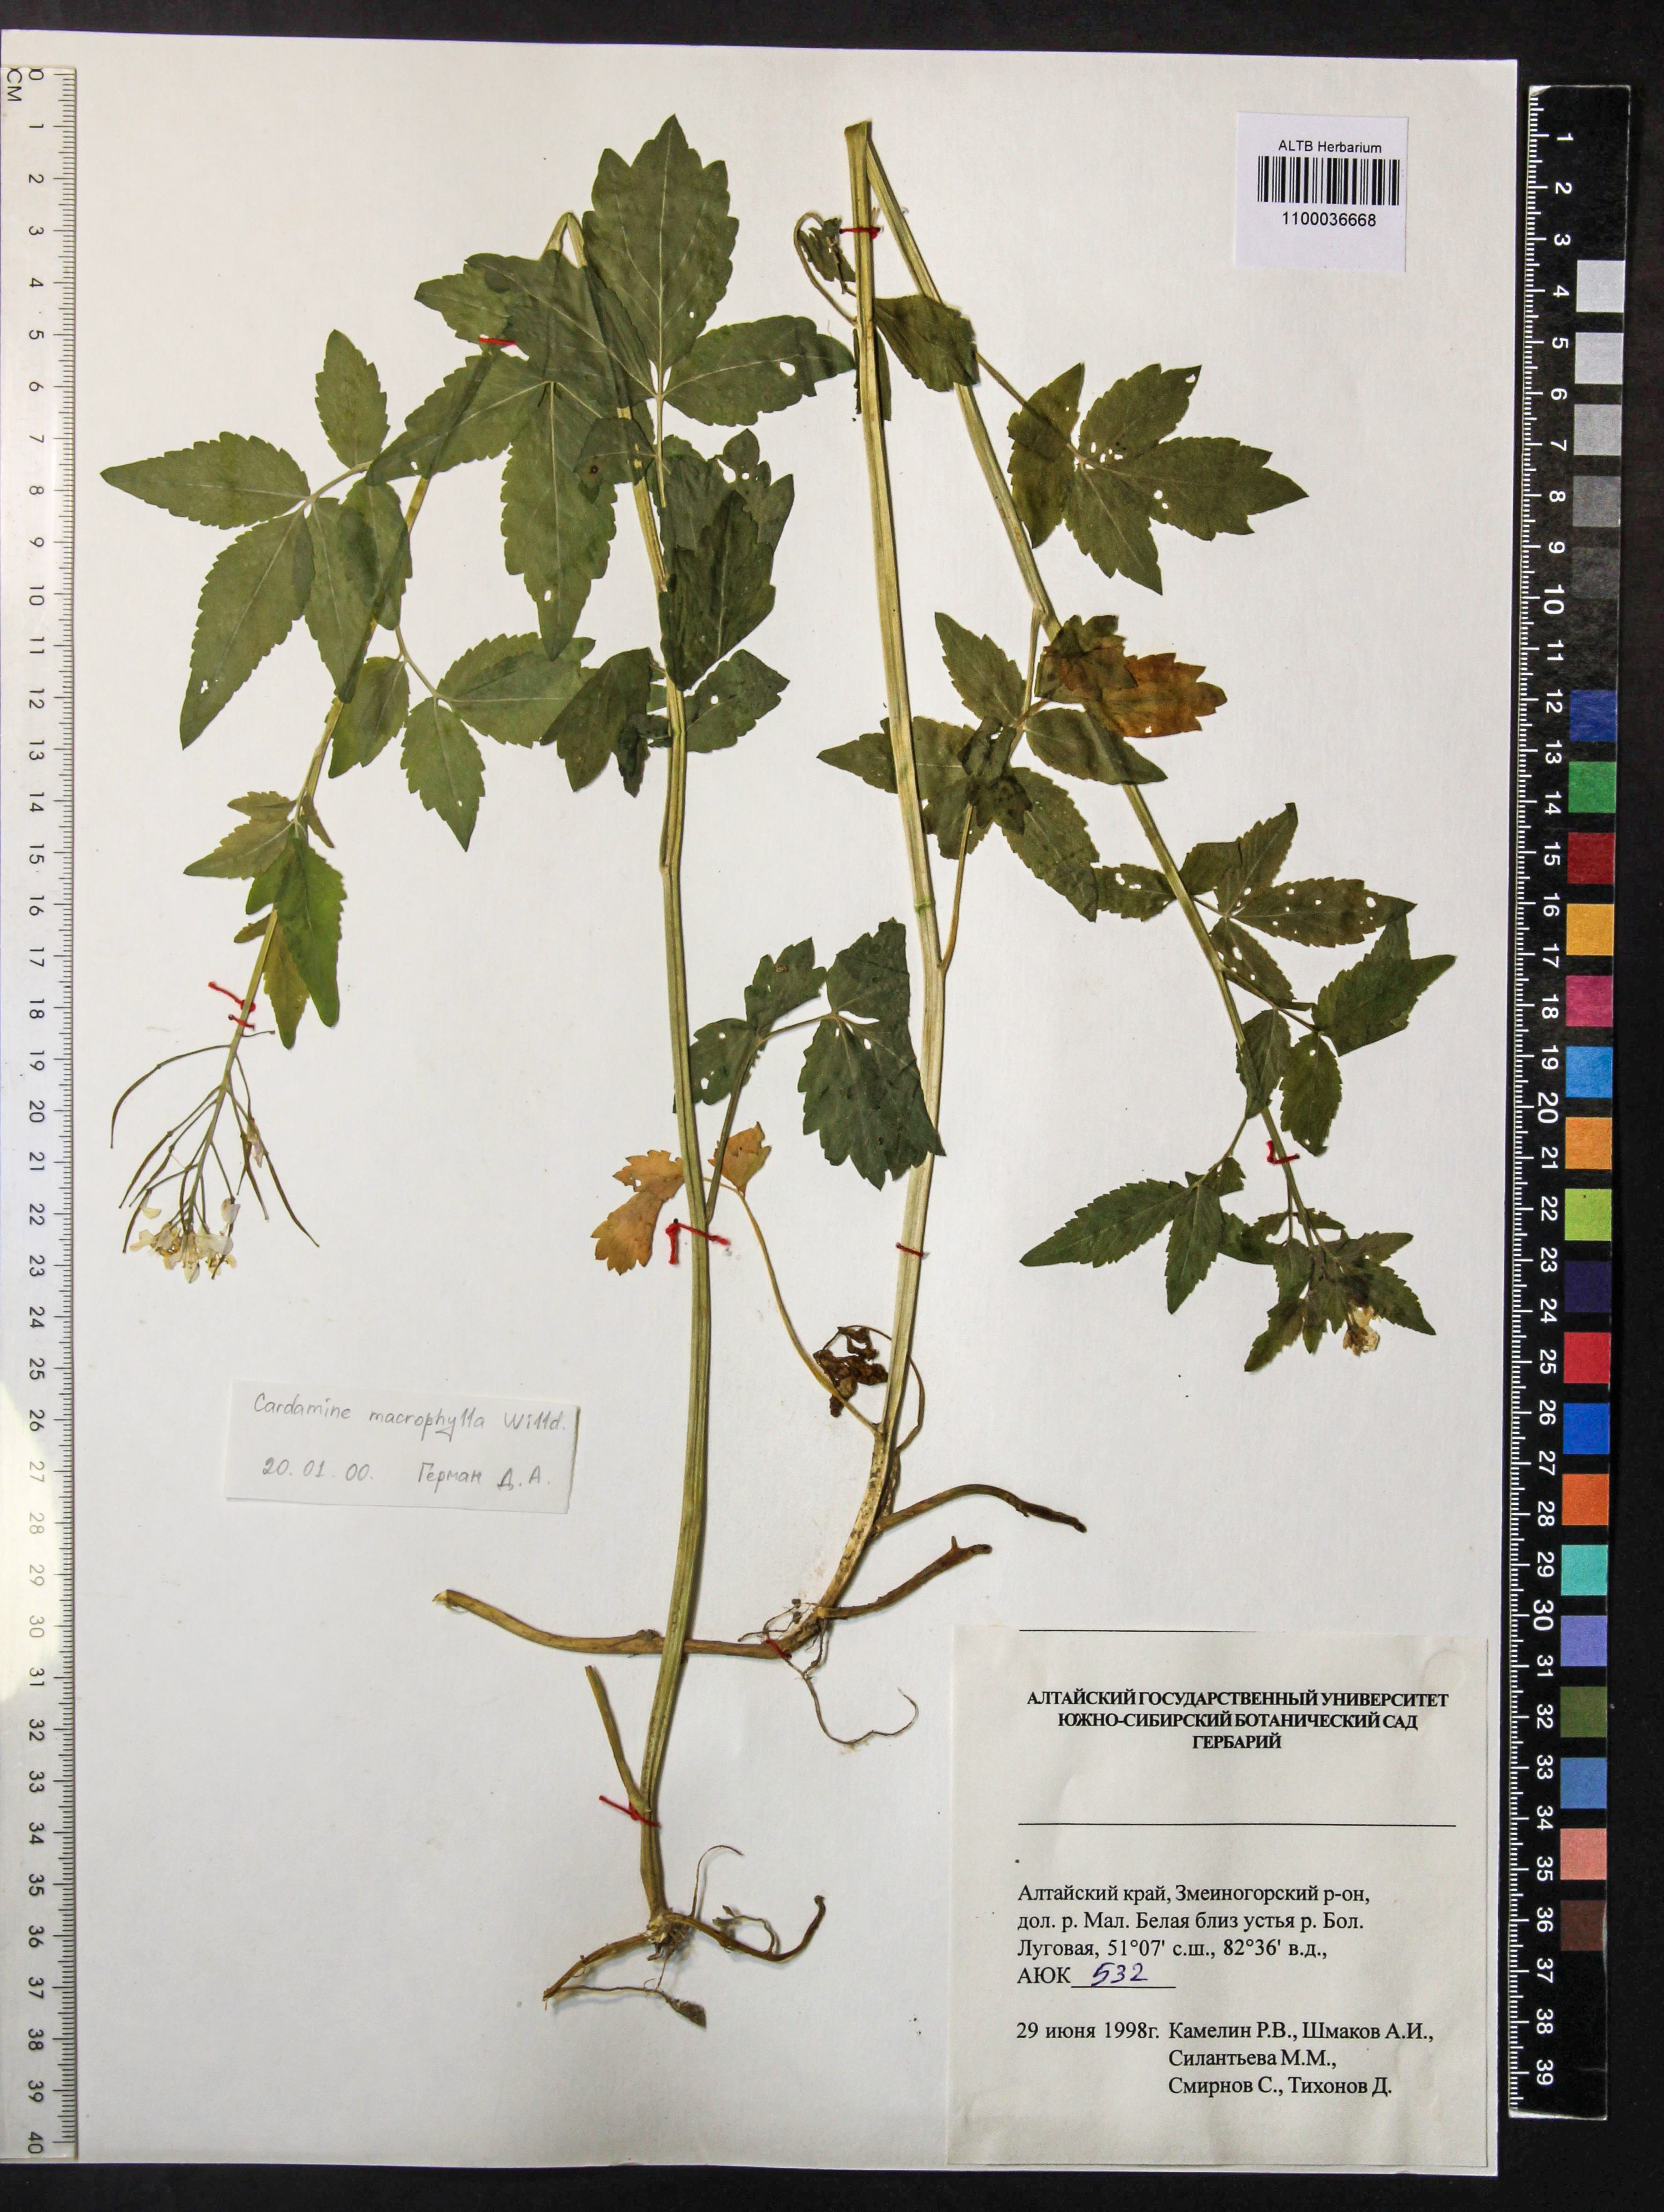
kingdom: Plantae
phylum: Tracheophyta
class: Magnoliopsida
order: Brassicales
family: Brassicaceae
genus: Cardamine
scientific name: Cardamine macrophylla
